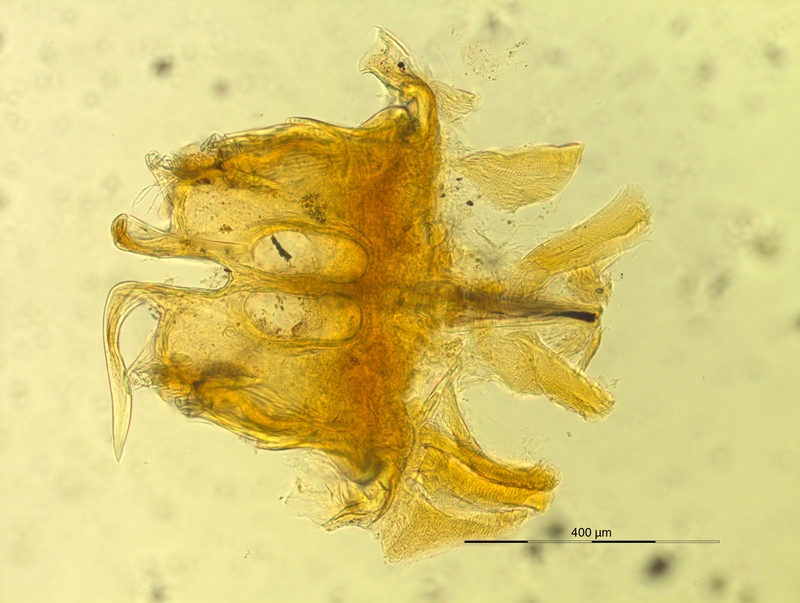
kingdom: Animalia
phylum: Arthropoda
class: Diplopoda
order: Chordeumatida
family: Craspedosomatidae
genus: Pyrgocyphosoma
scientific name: Pyrgocyphosoma longilamellatum
